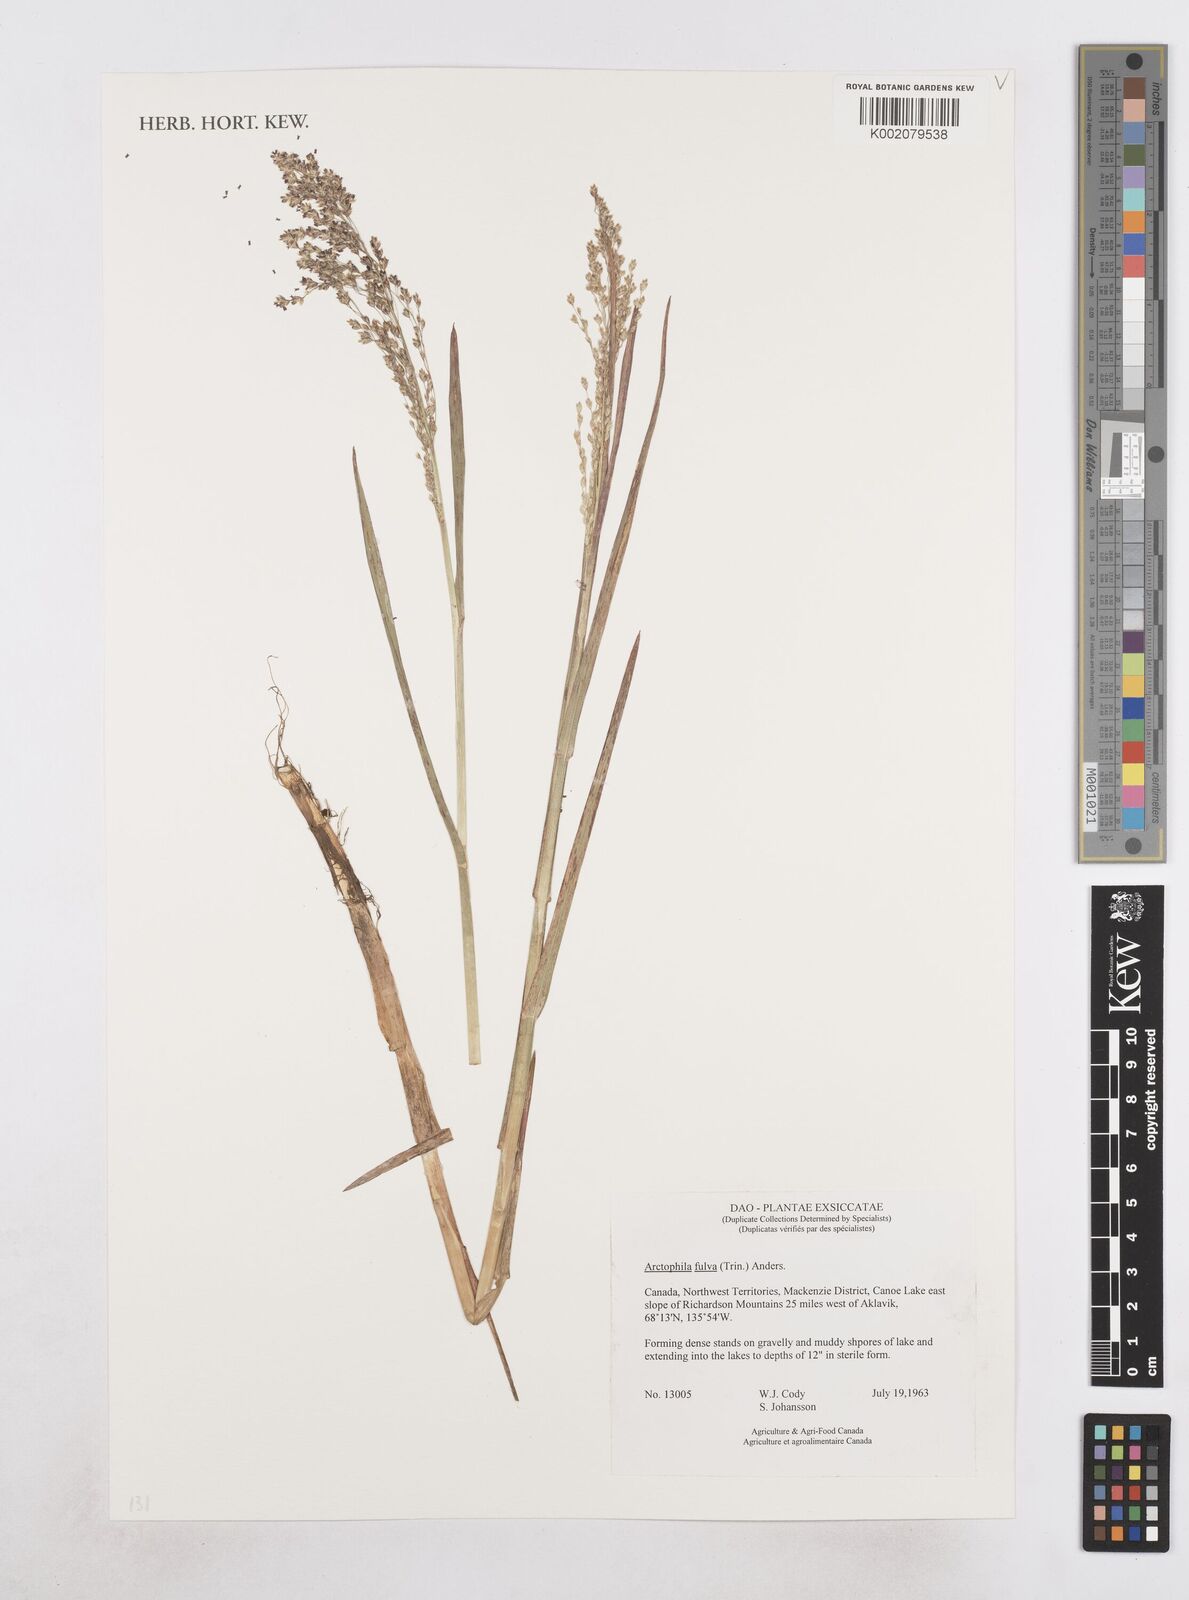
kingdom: Plantae
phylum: Tracheophyta
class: Liliopsida
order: Poales
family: Poaceae
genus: Dupontia
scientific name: Dupontia fulva
